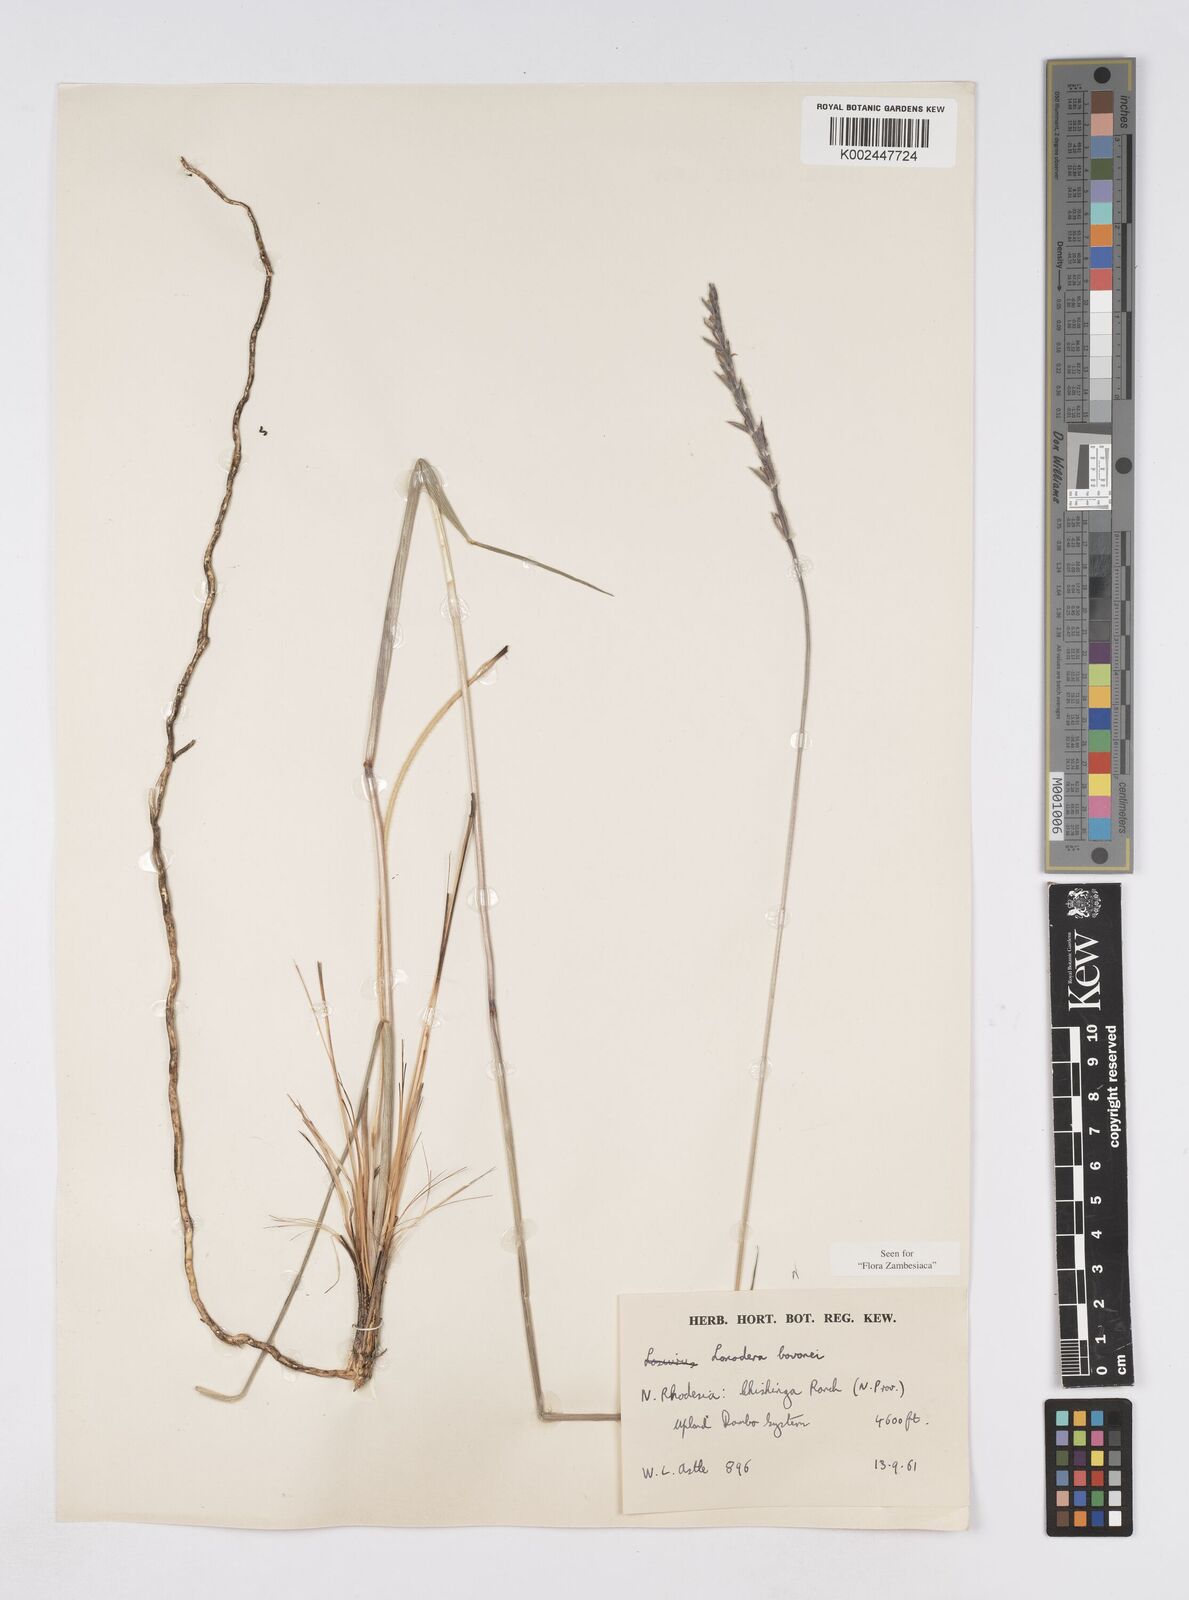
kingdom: Plantae
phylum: Tracheophyta
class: Liliopsida
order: Poales
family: Poaceae
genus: Loxodera
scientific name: Loxodera bovonei
